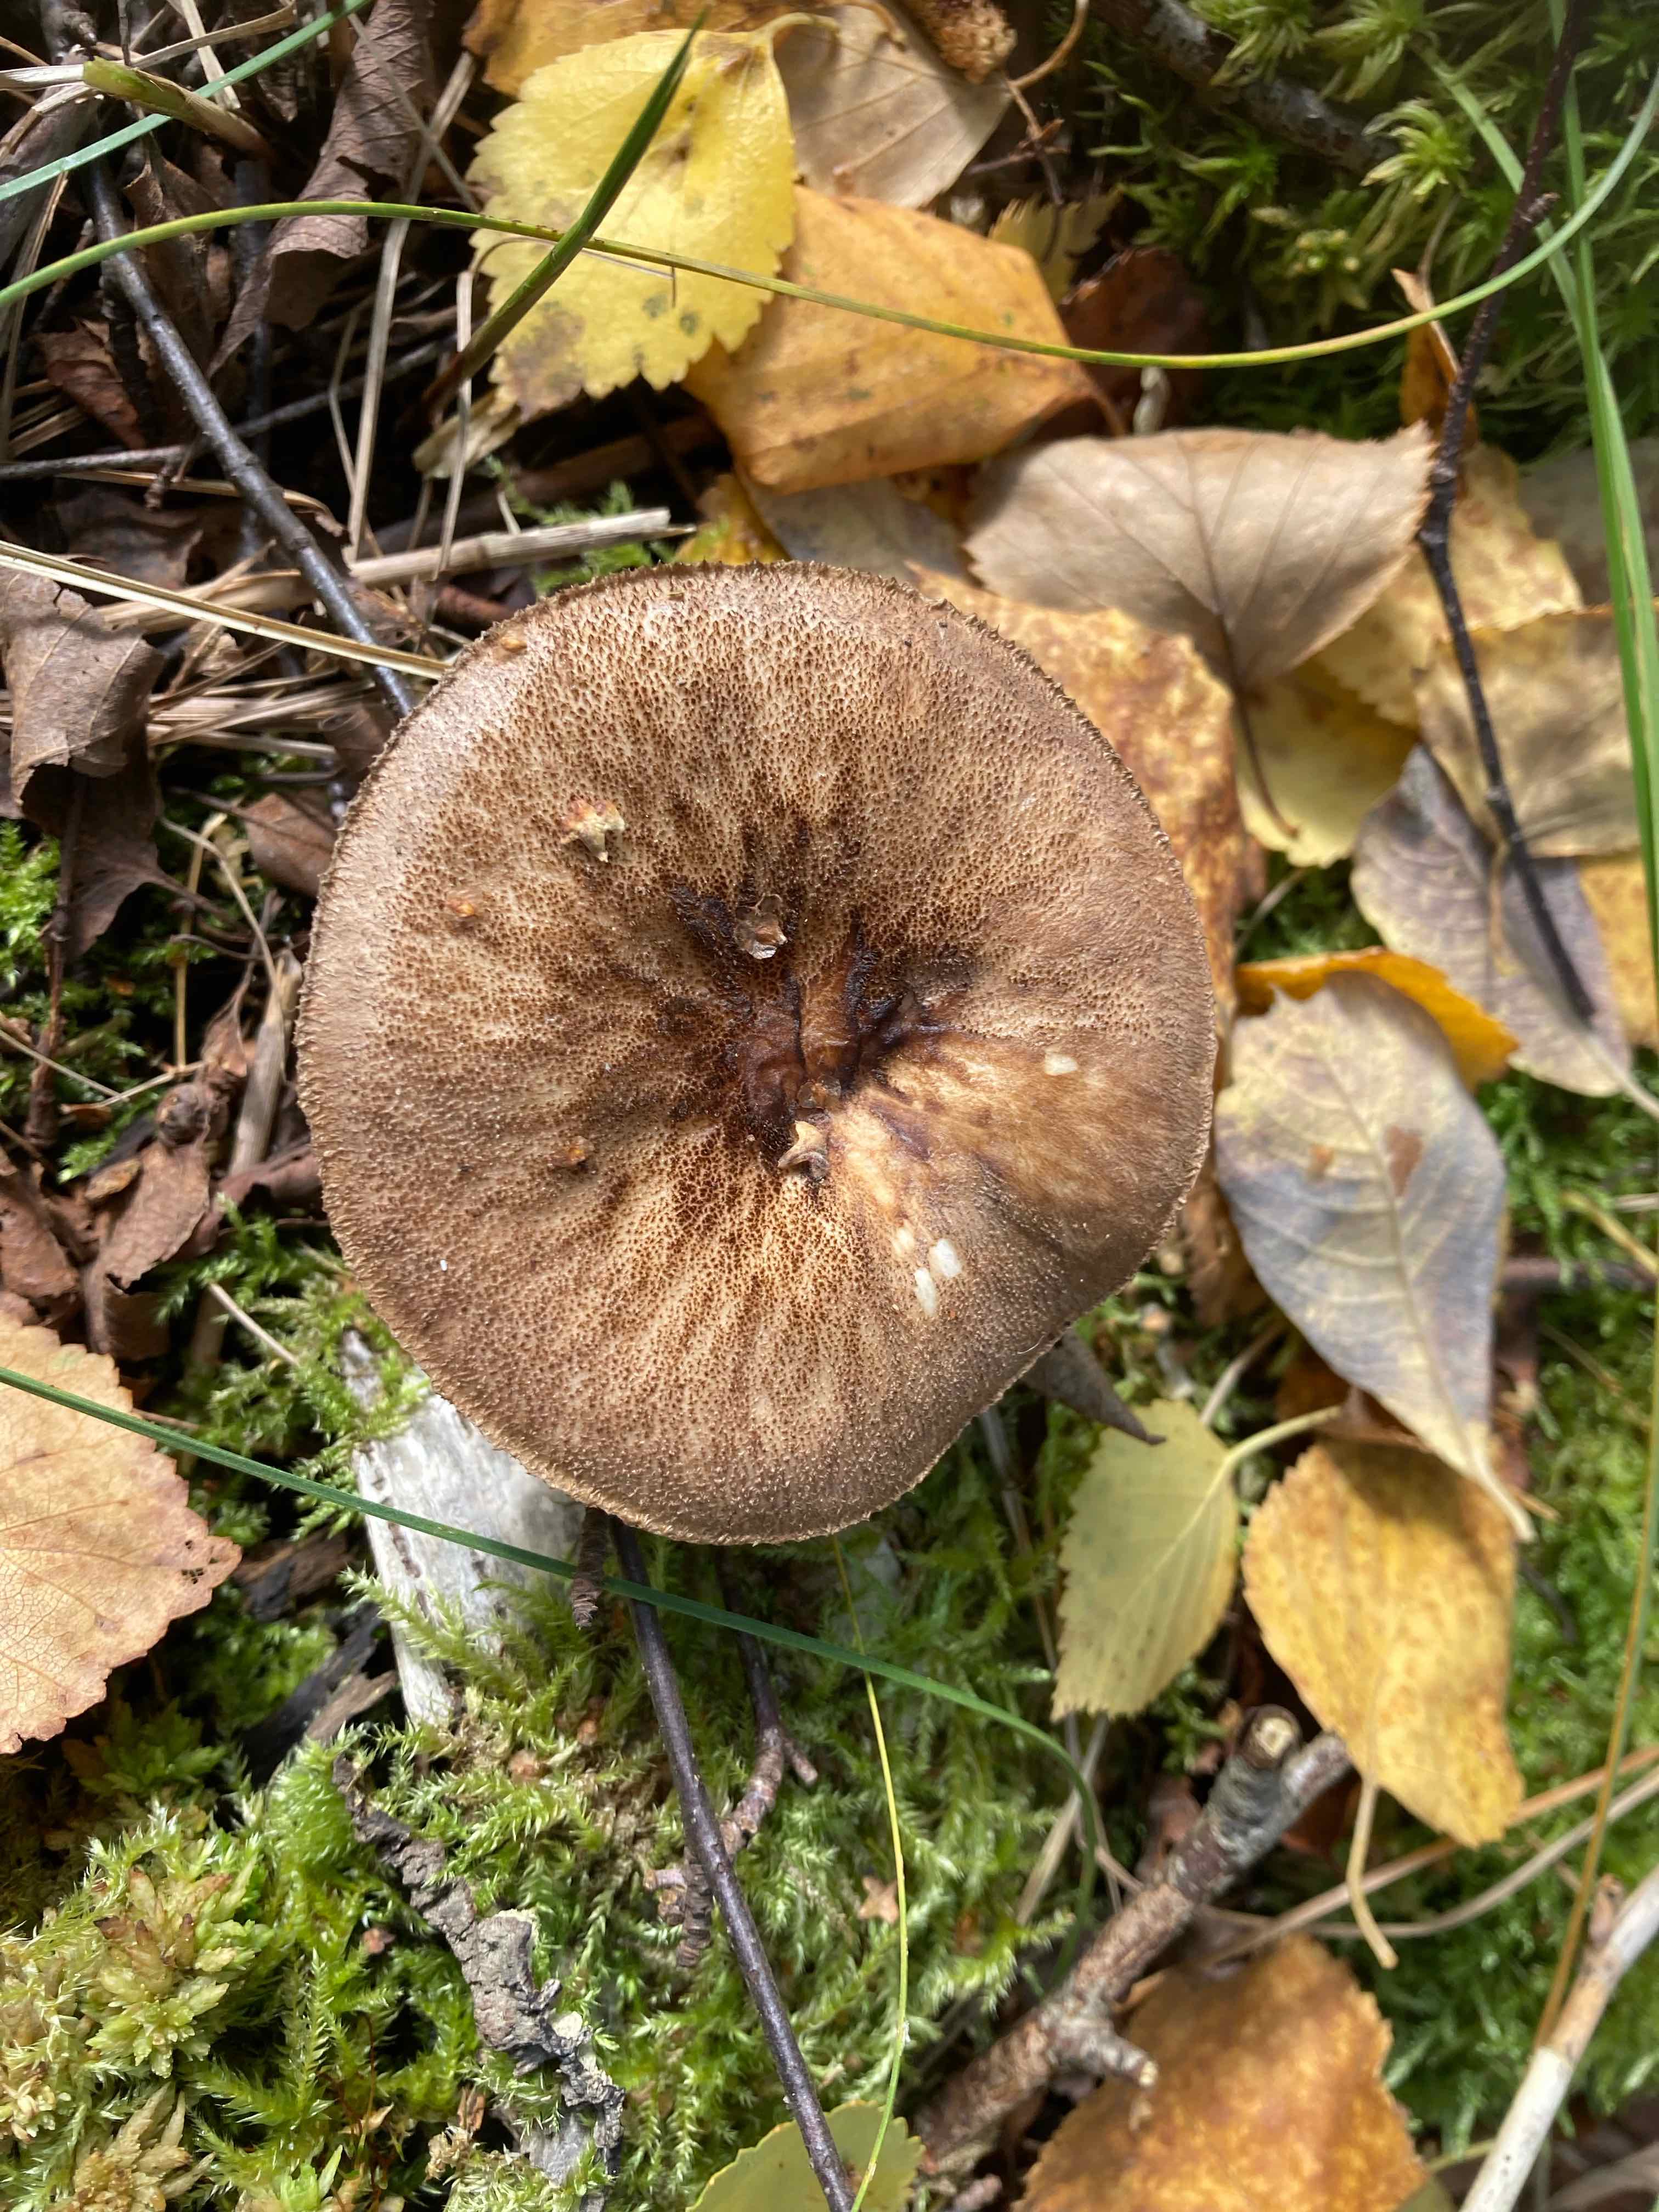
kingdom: Fungi
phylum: Basidiomycota
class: Agaricomycetes
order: Agaricales
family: Pluteaceae
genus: Pluteus
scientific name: Pluteus umbrosus
